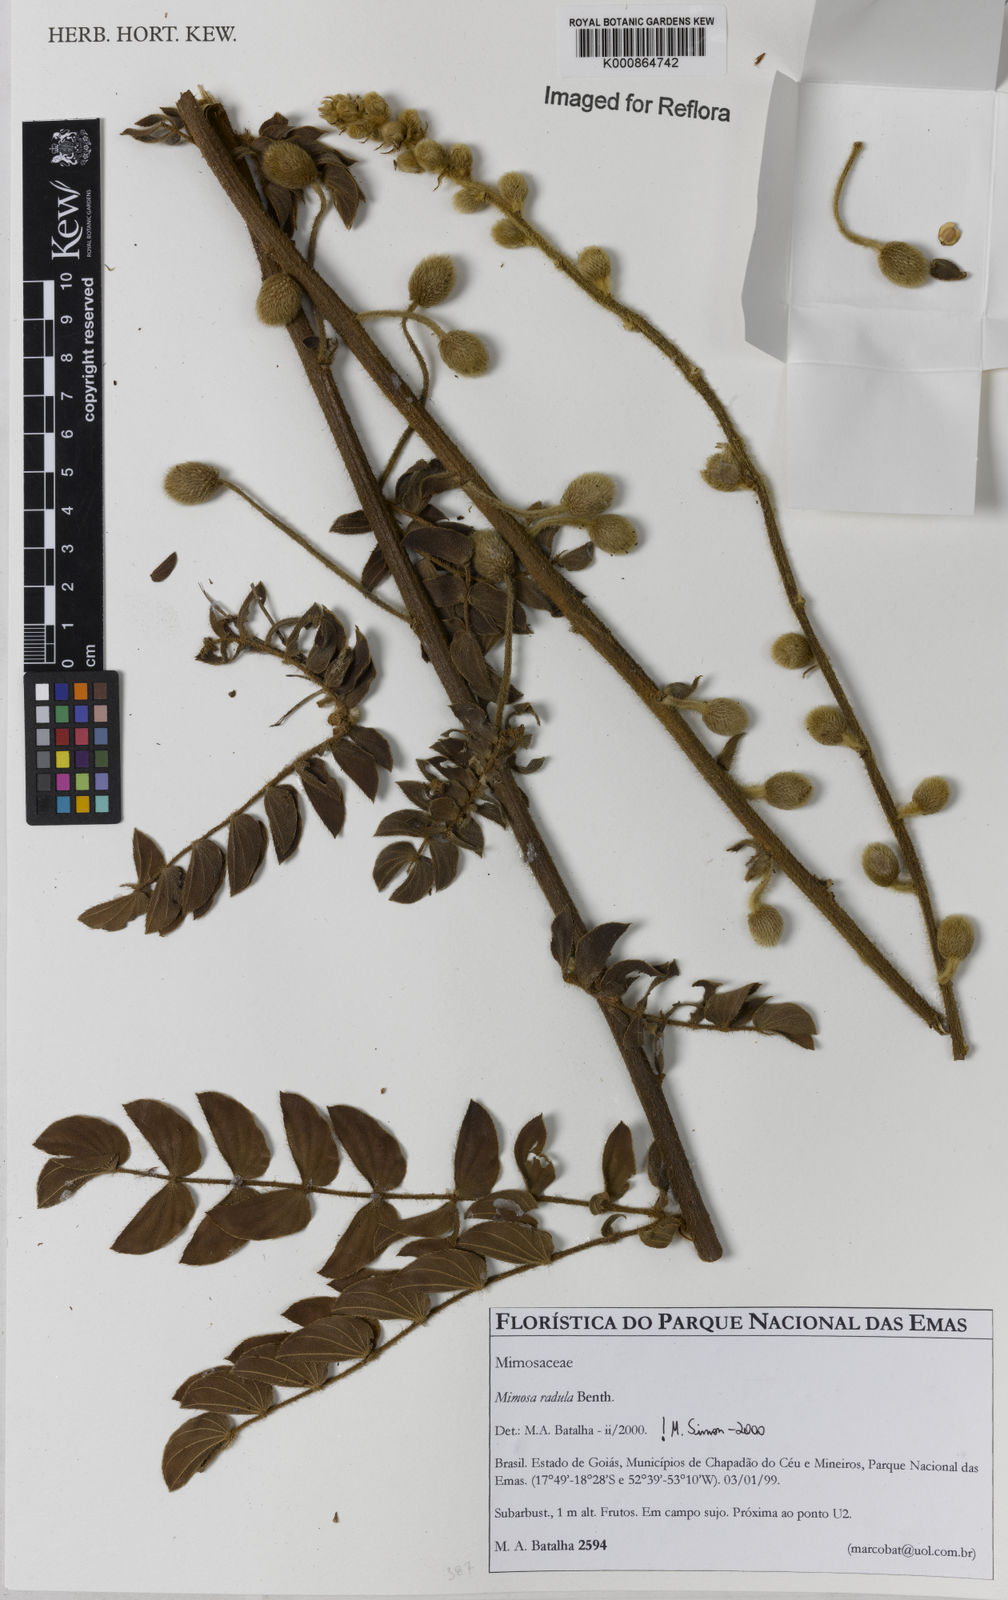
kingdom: Plantae
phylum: Tracheophyta
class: Magnoliopsida
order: Fabales
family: Fabaceae
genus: Mimosa
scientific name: Mimosa radula
